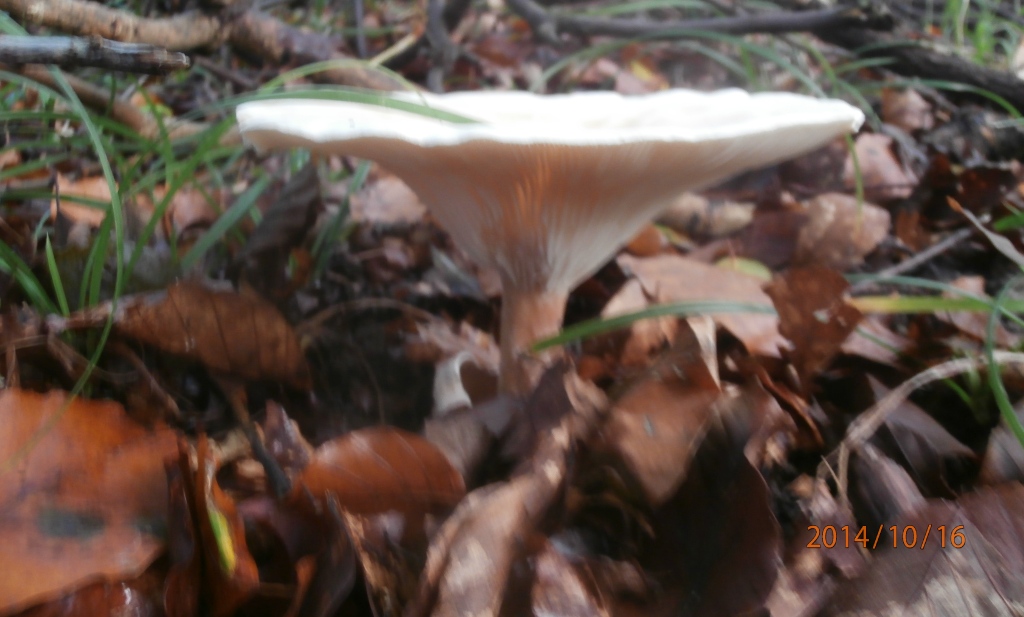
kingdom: Fungi
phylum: Basidiomycota
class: Agaricomycetes
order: Agaricales
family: Tricholomataceae
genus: Infundibulicybe
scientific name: Infundibulicybe geotropa
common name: stor tragthat
